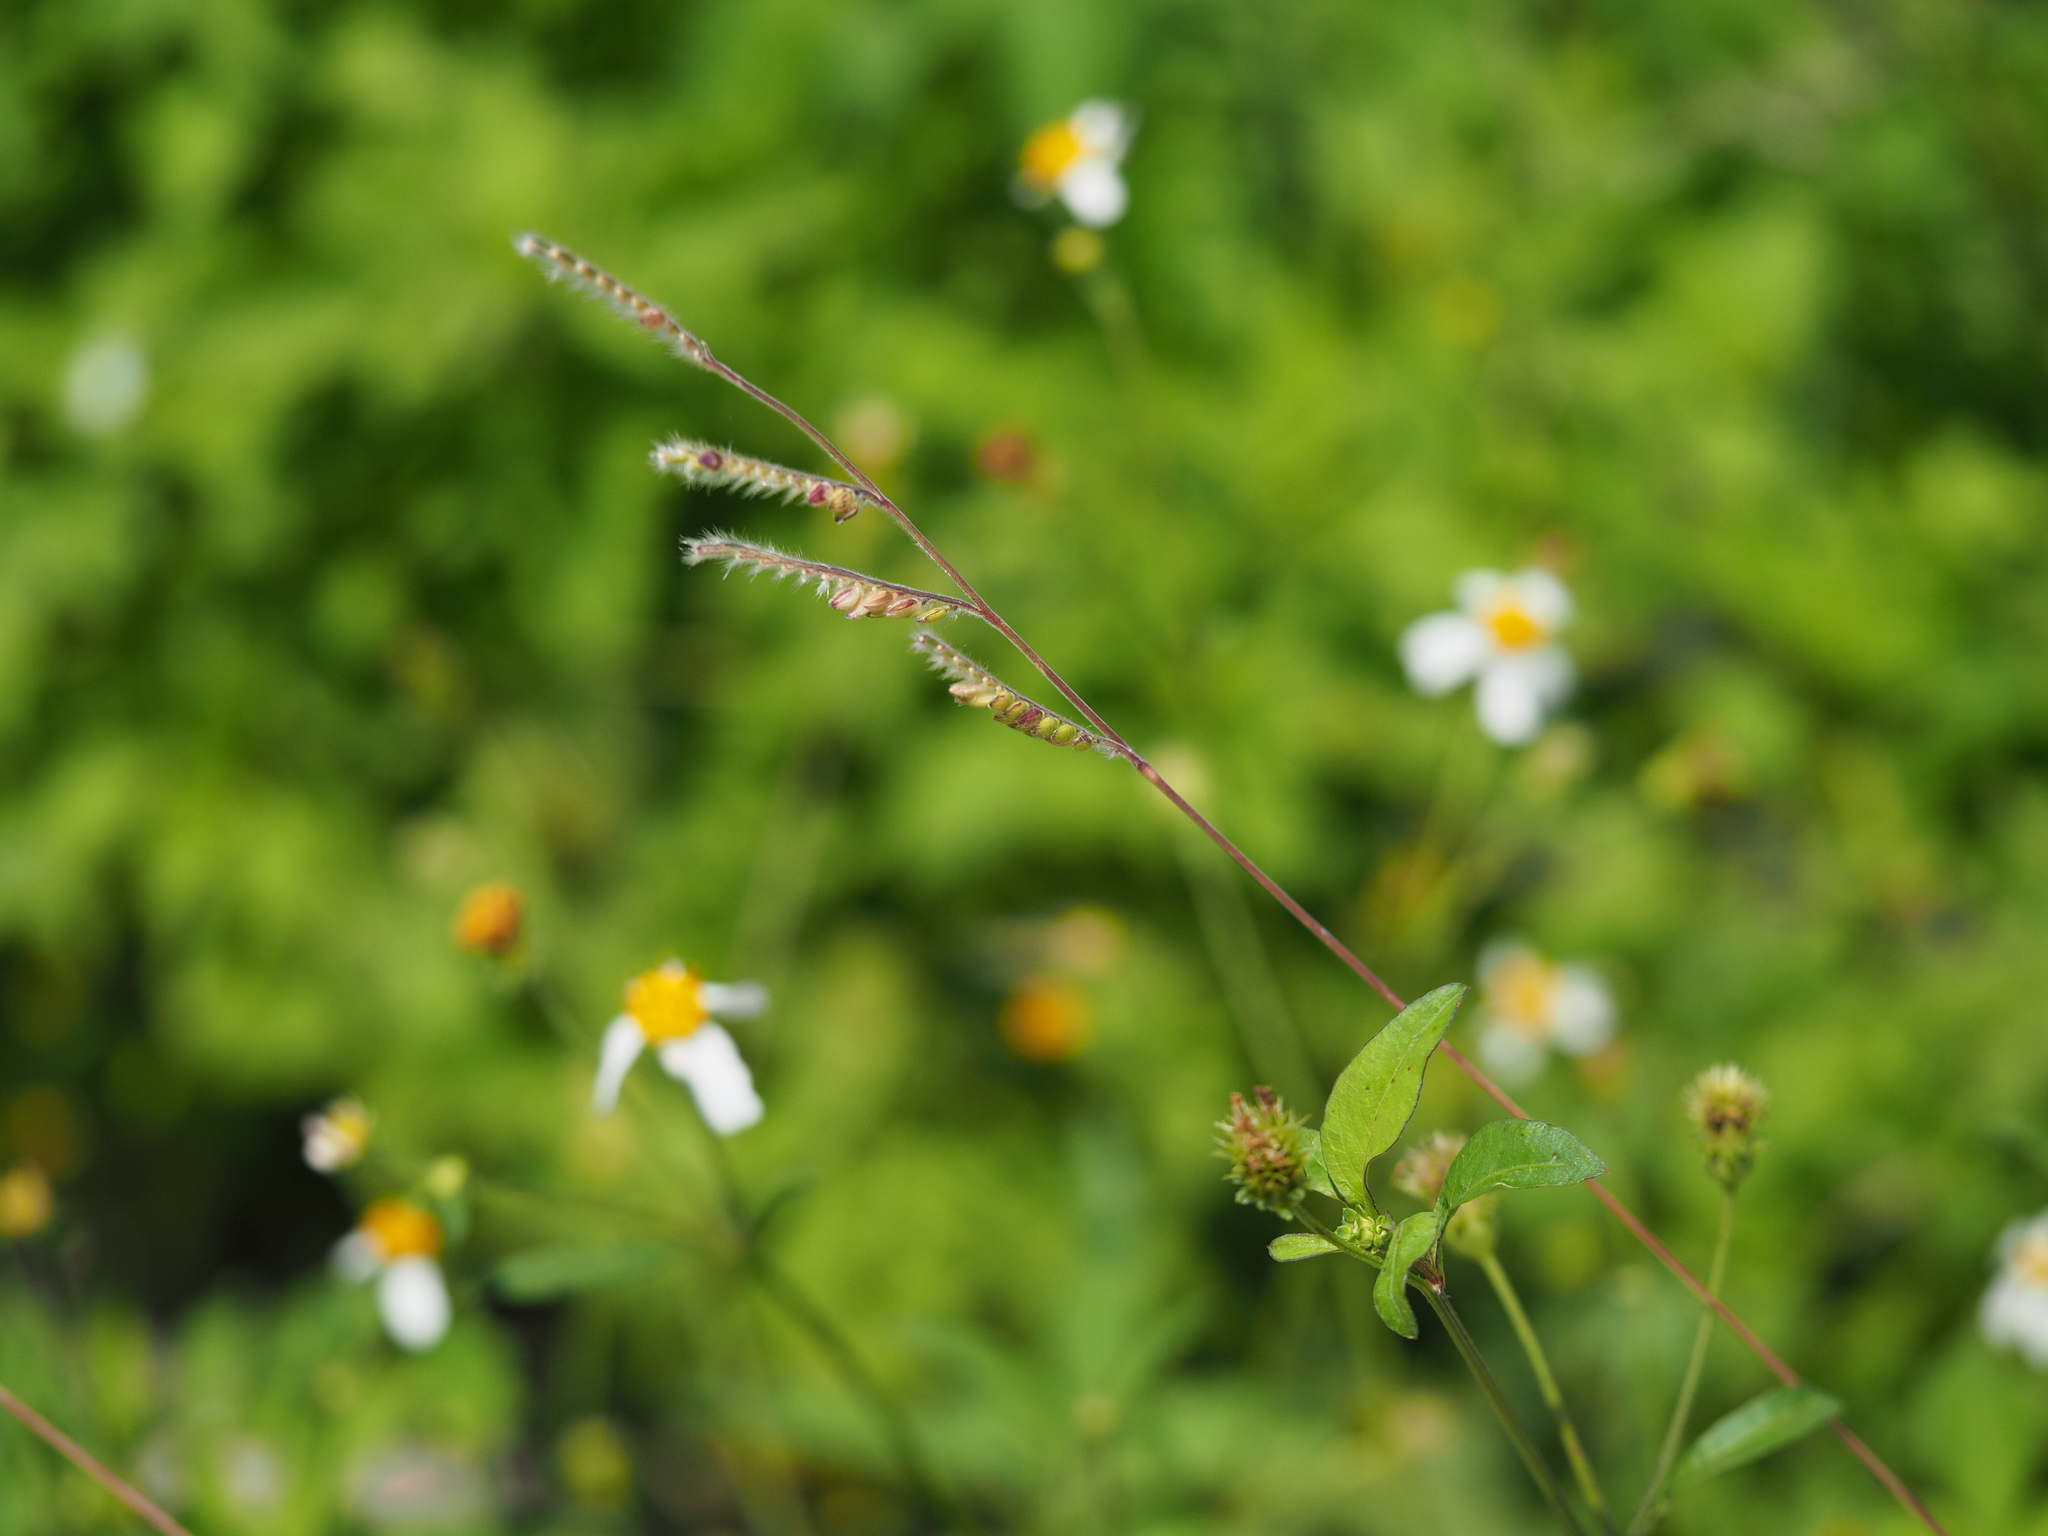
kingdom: Plantae
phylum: Tracheophyta
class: Liliopsida
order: Poales
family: Poaceae
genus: Eriochloa
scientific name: Eriochloa villosa
